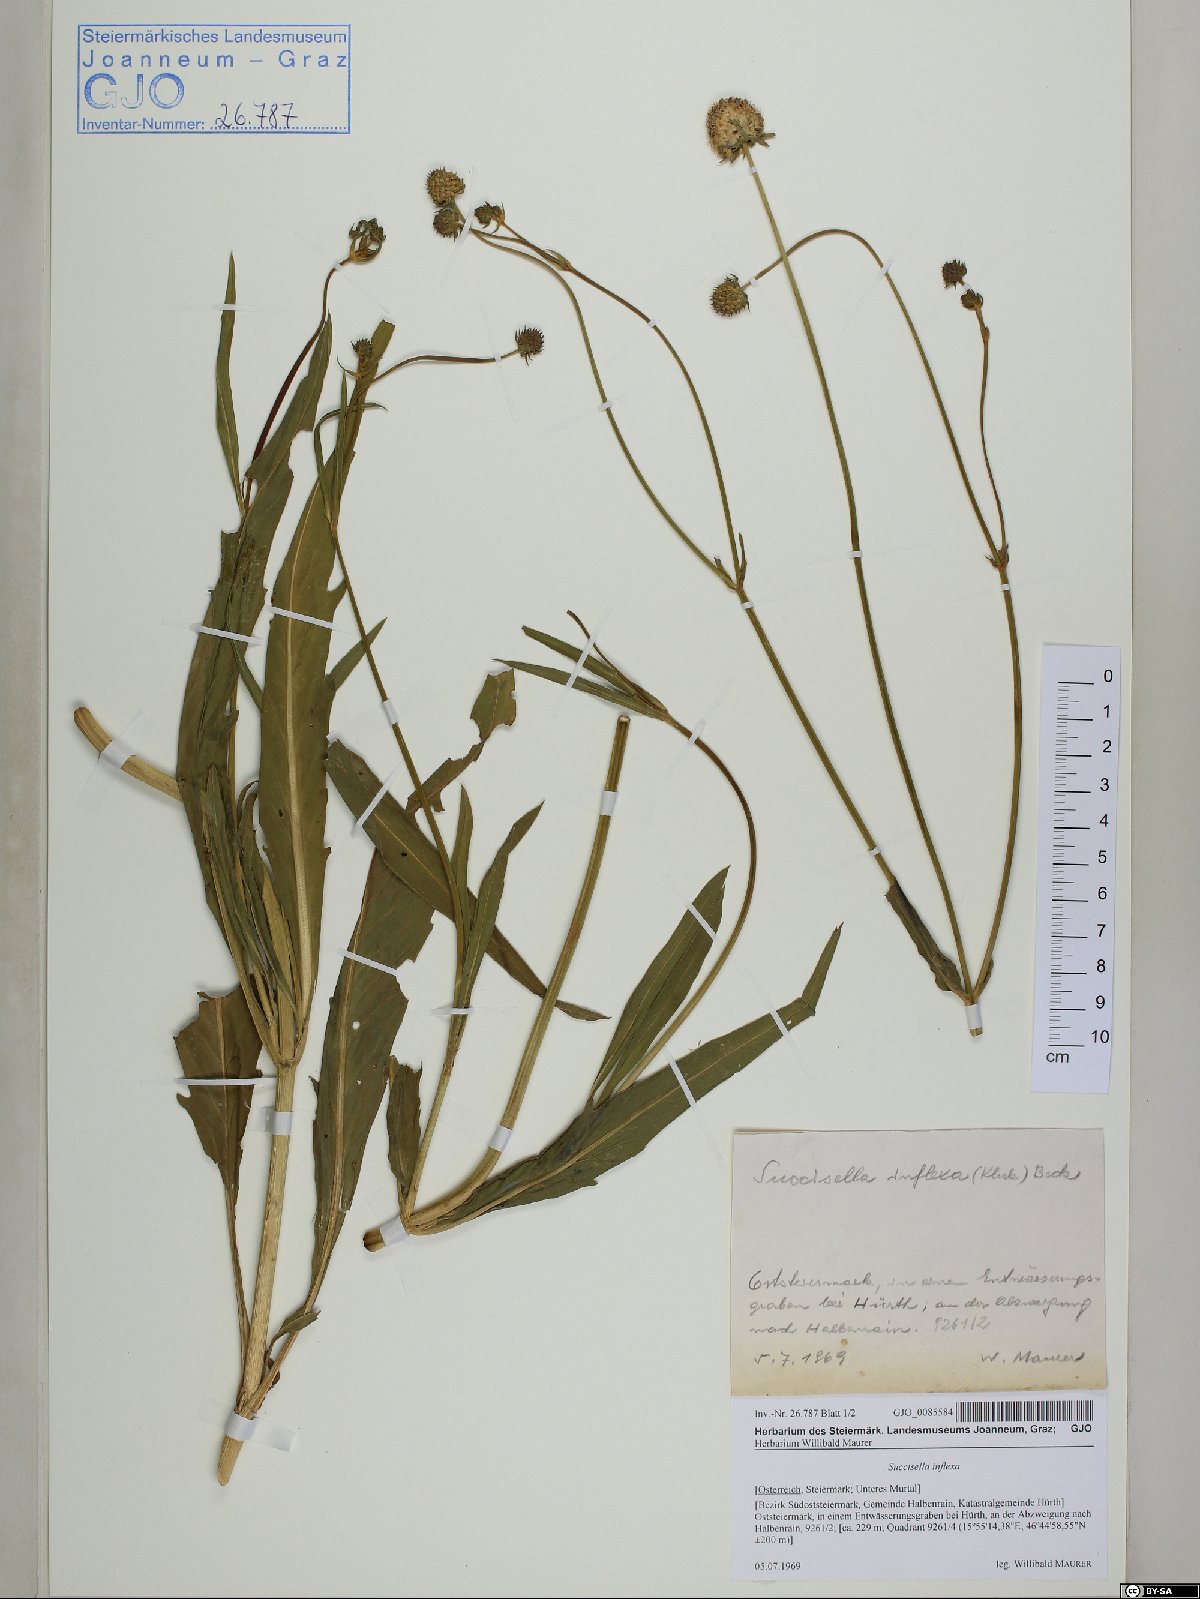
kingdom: Plantae
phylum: Tracheophyta
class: Magnoliopsida
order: Dipsacales
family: Caprifoliaceae
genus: Succisella
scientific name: Succisella inflexa
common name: Southern succisella
